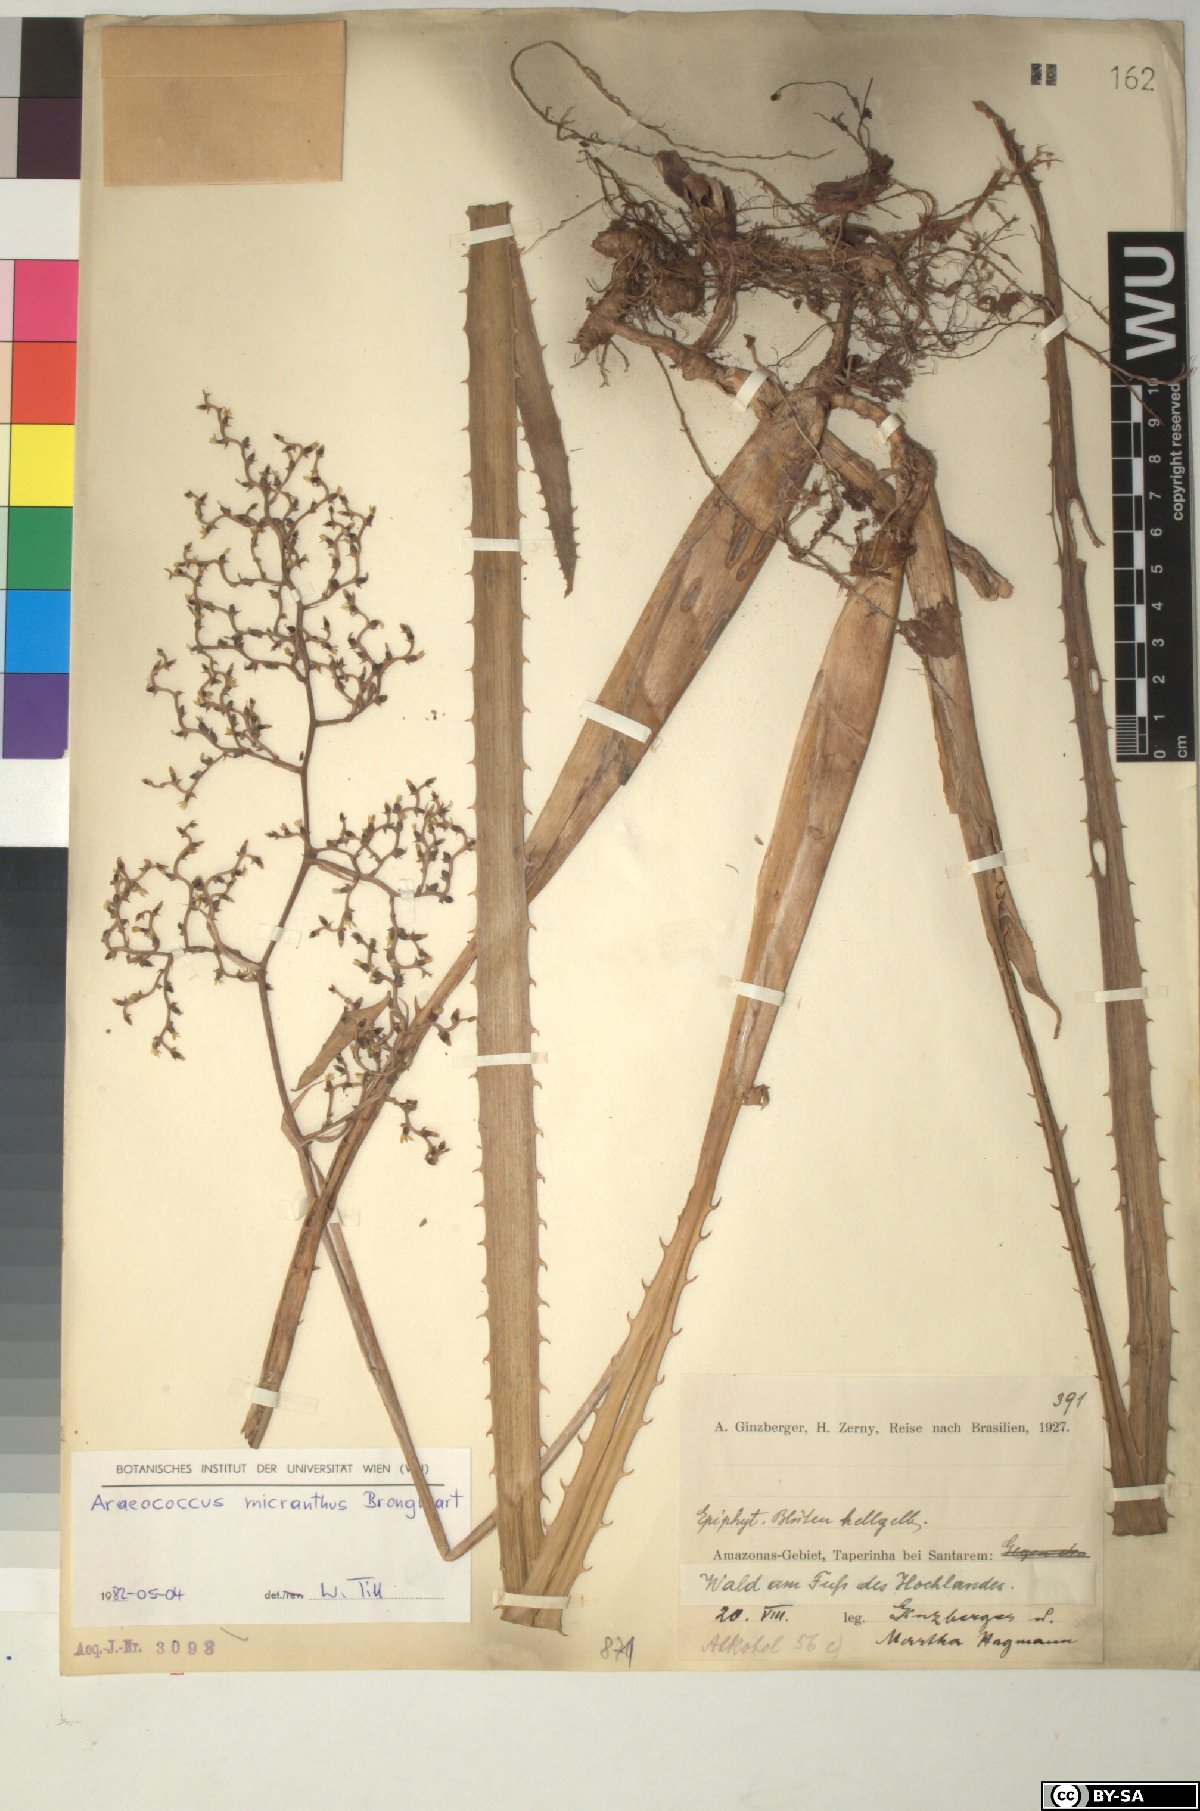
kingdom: Plantae
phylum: Tracheophyta
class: Liliopsida
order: Poales
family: Bromeliaceae
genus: Araeococcus
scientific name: Araeococcus micranthus
